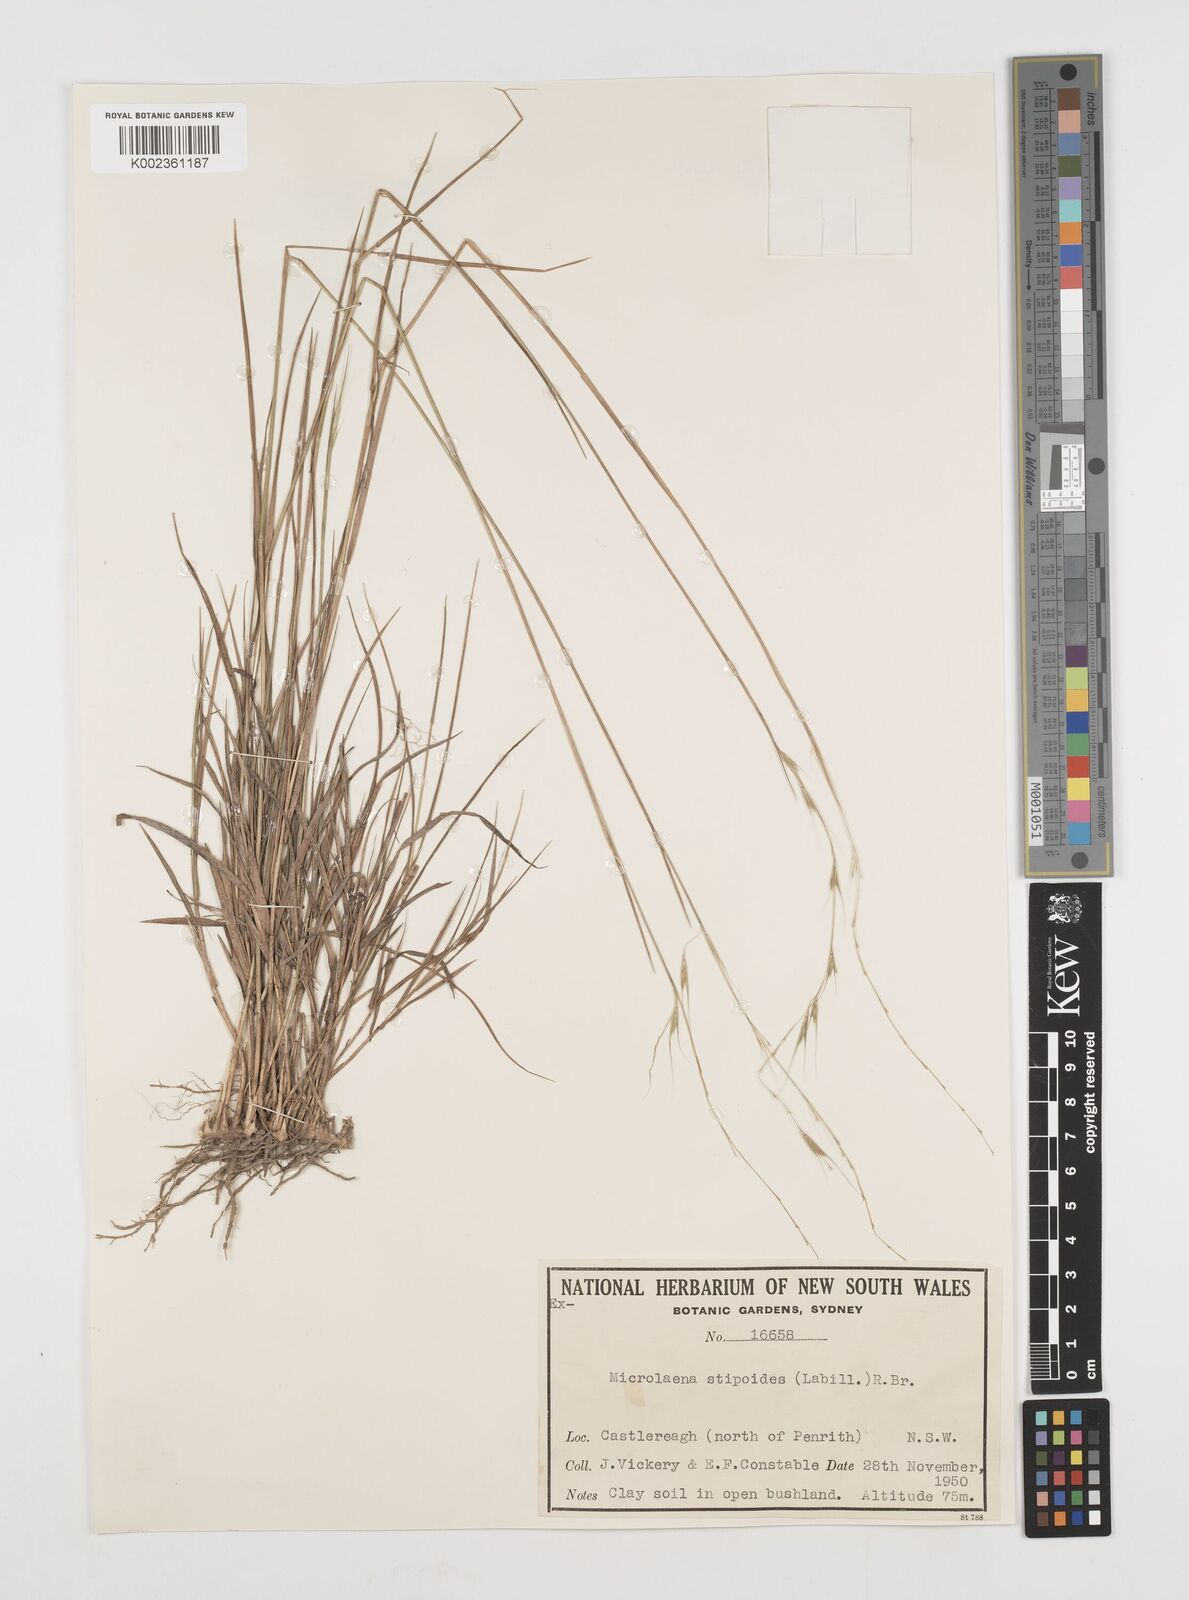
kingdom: Plantae
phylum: Tracheophyta
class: Liliopsida
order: Poales
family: Poaceae
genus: Microlaena
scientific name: Microlaena stipoides
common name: Meadow ricegrass
